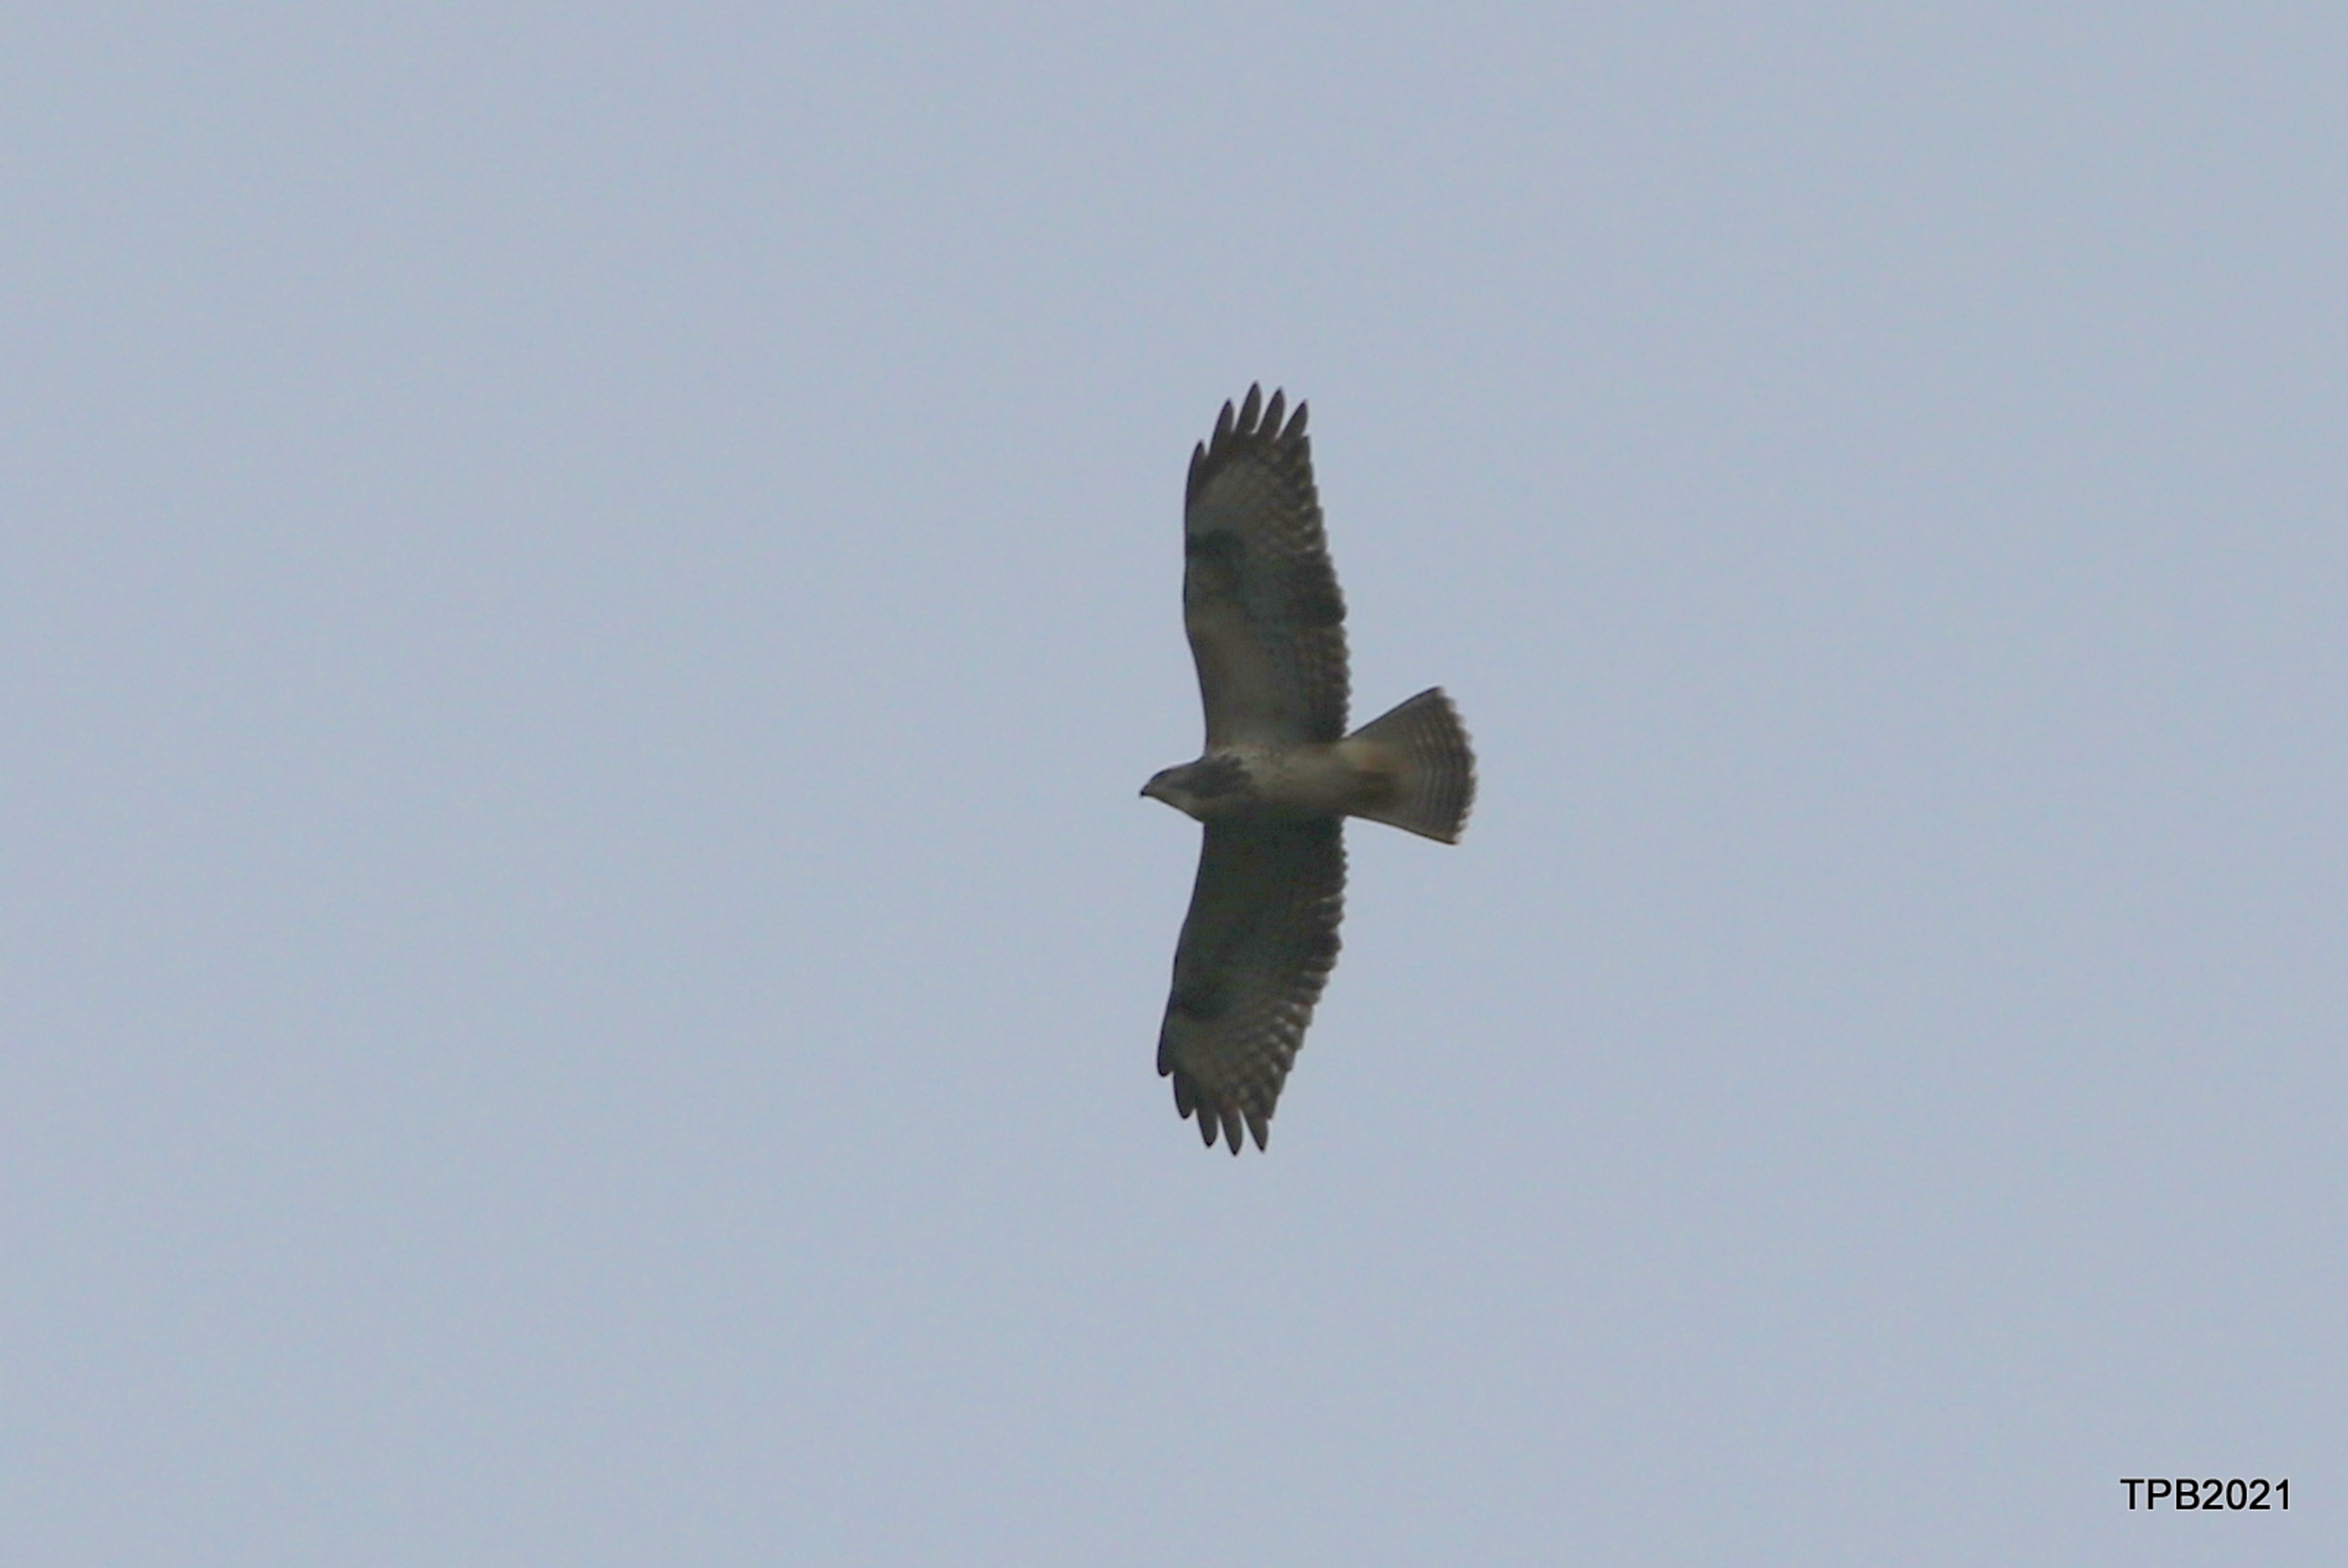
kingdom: Animalia
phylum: Chordata
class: Aves
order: Accipitriformes
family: Accipitridae
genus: Buteo
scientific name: Buteo buteo
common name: Musvåge
